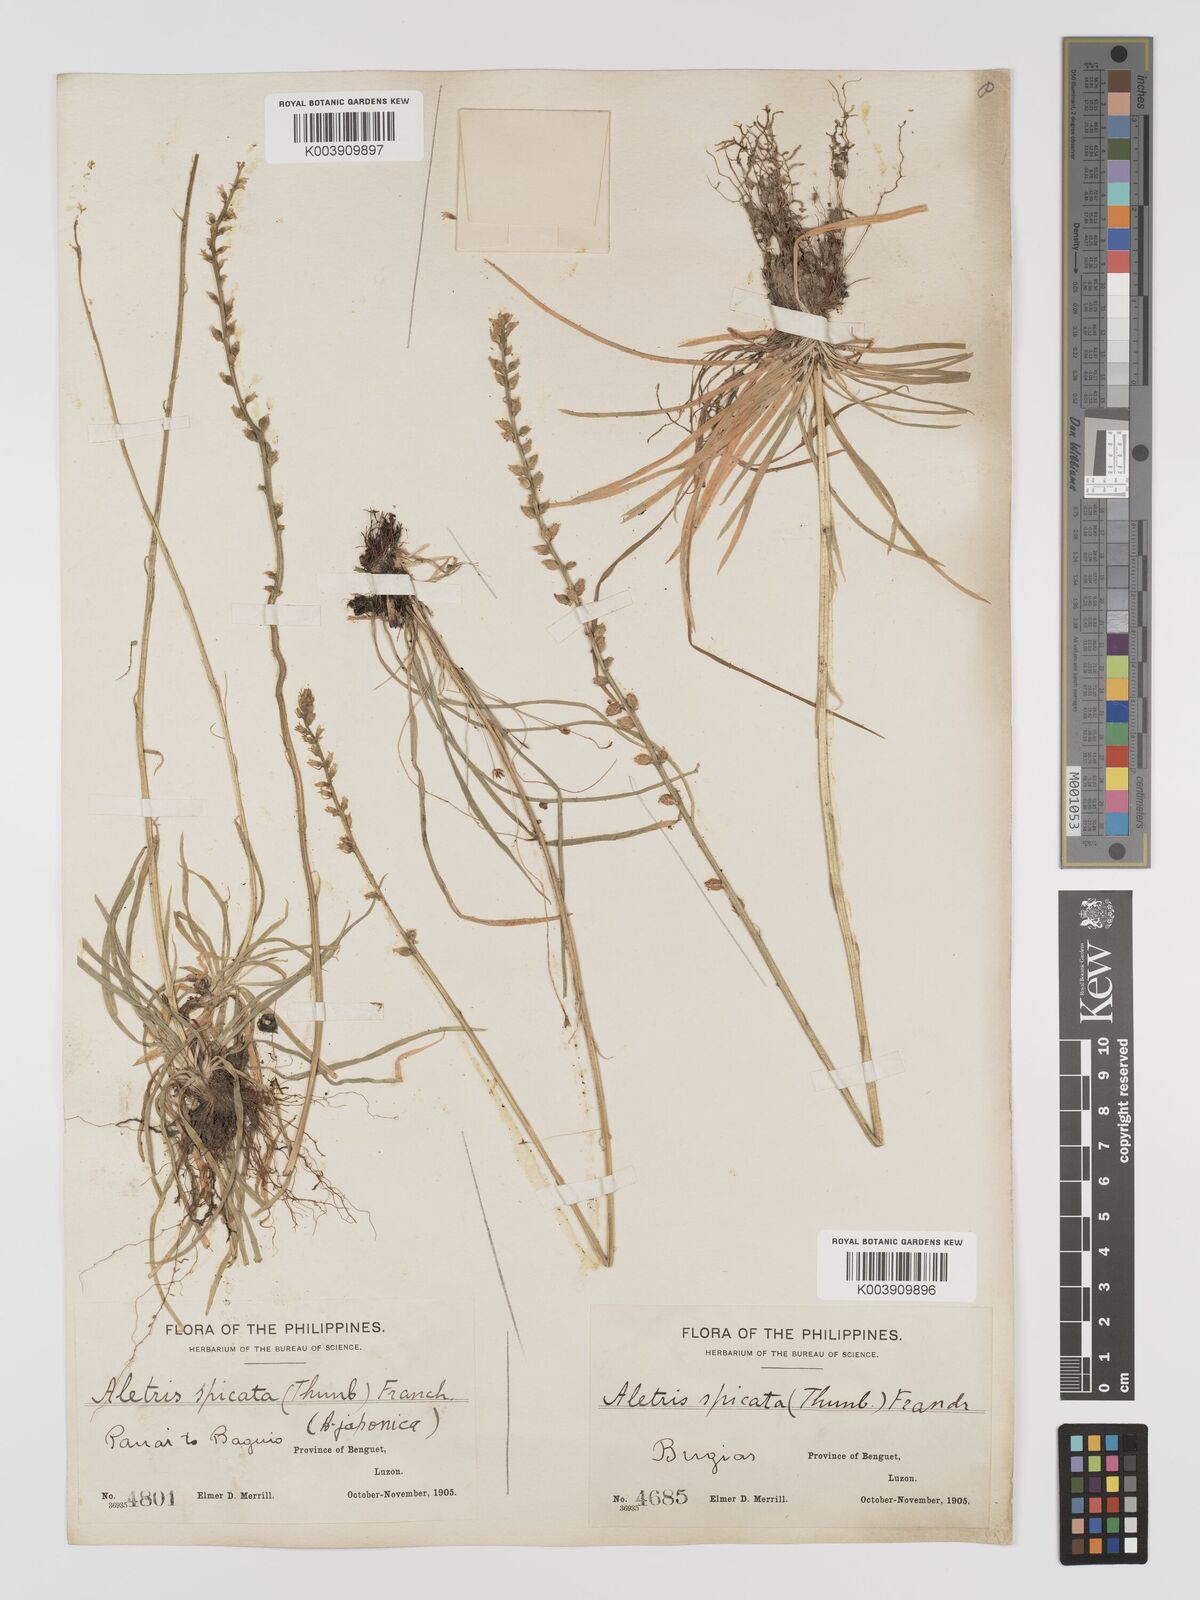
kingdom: Plantae
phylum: Tracheophyta
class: Liliopsida
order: Dioscoreales
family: Nartheciaceae
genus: Aletris
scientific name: Aletris spicata
